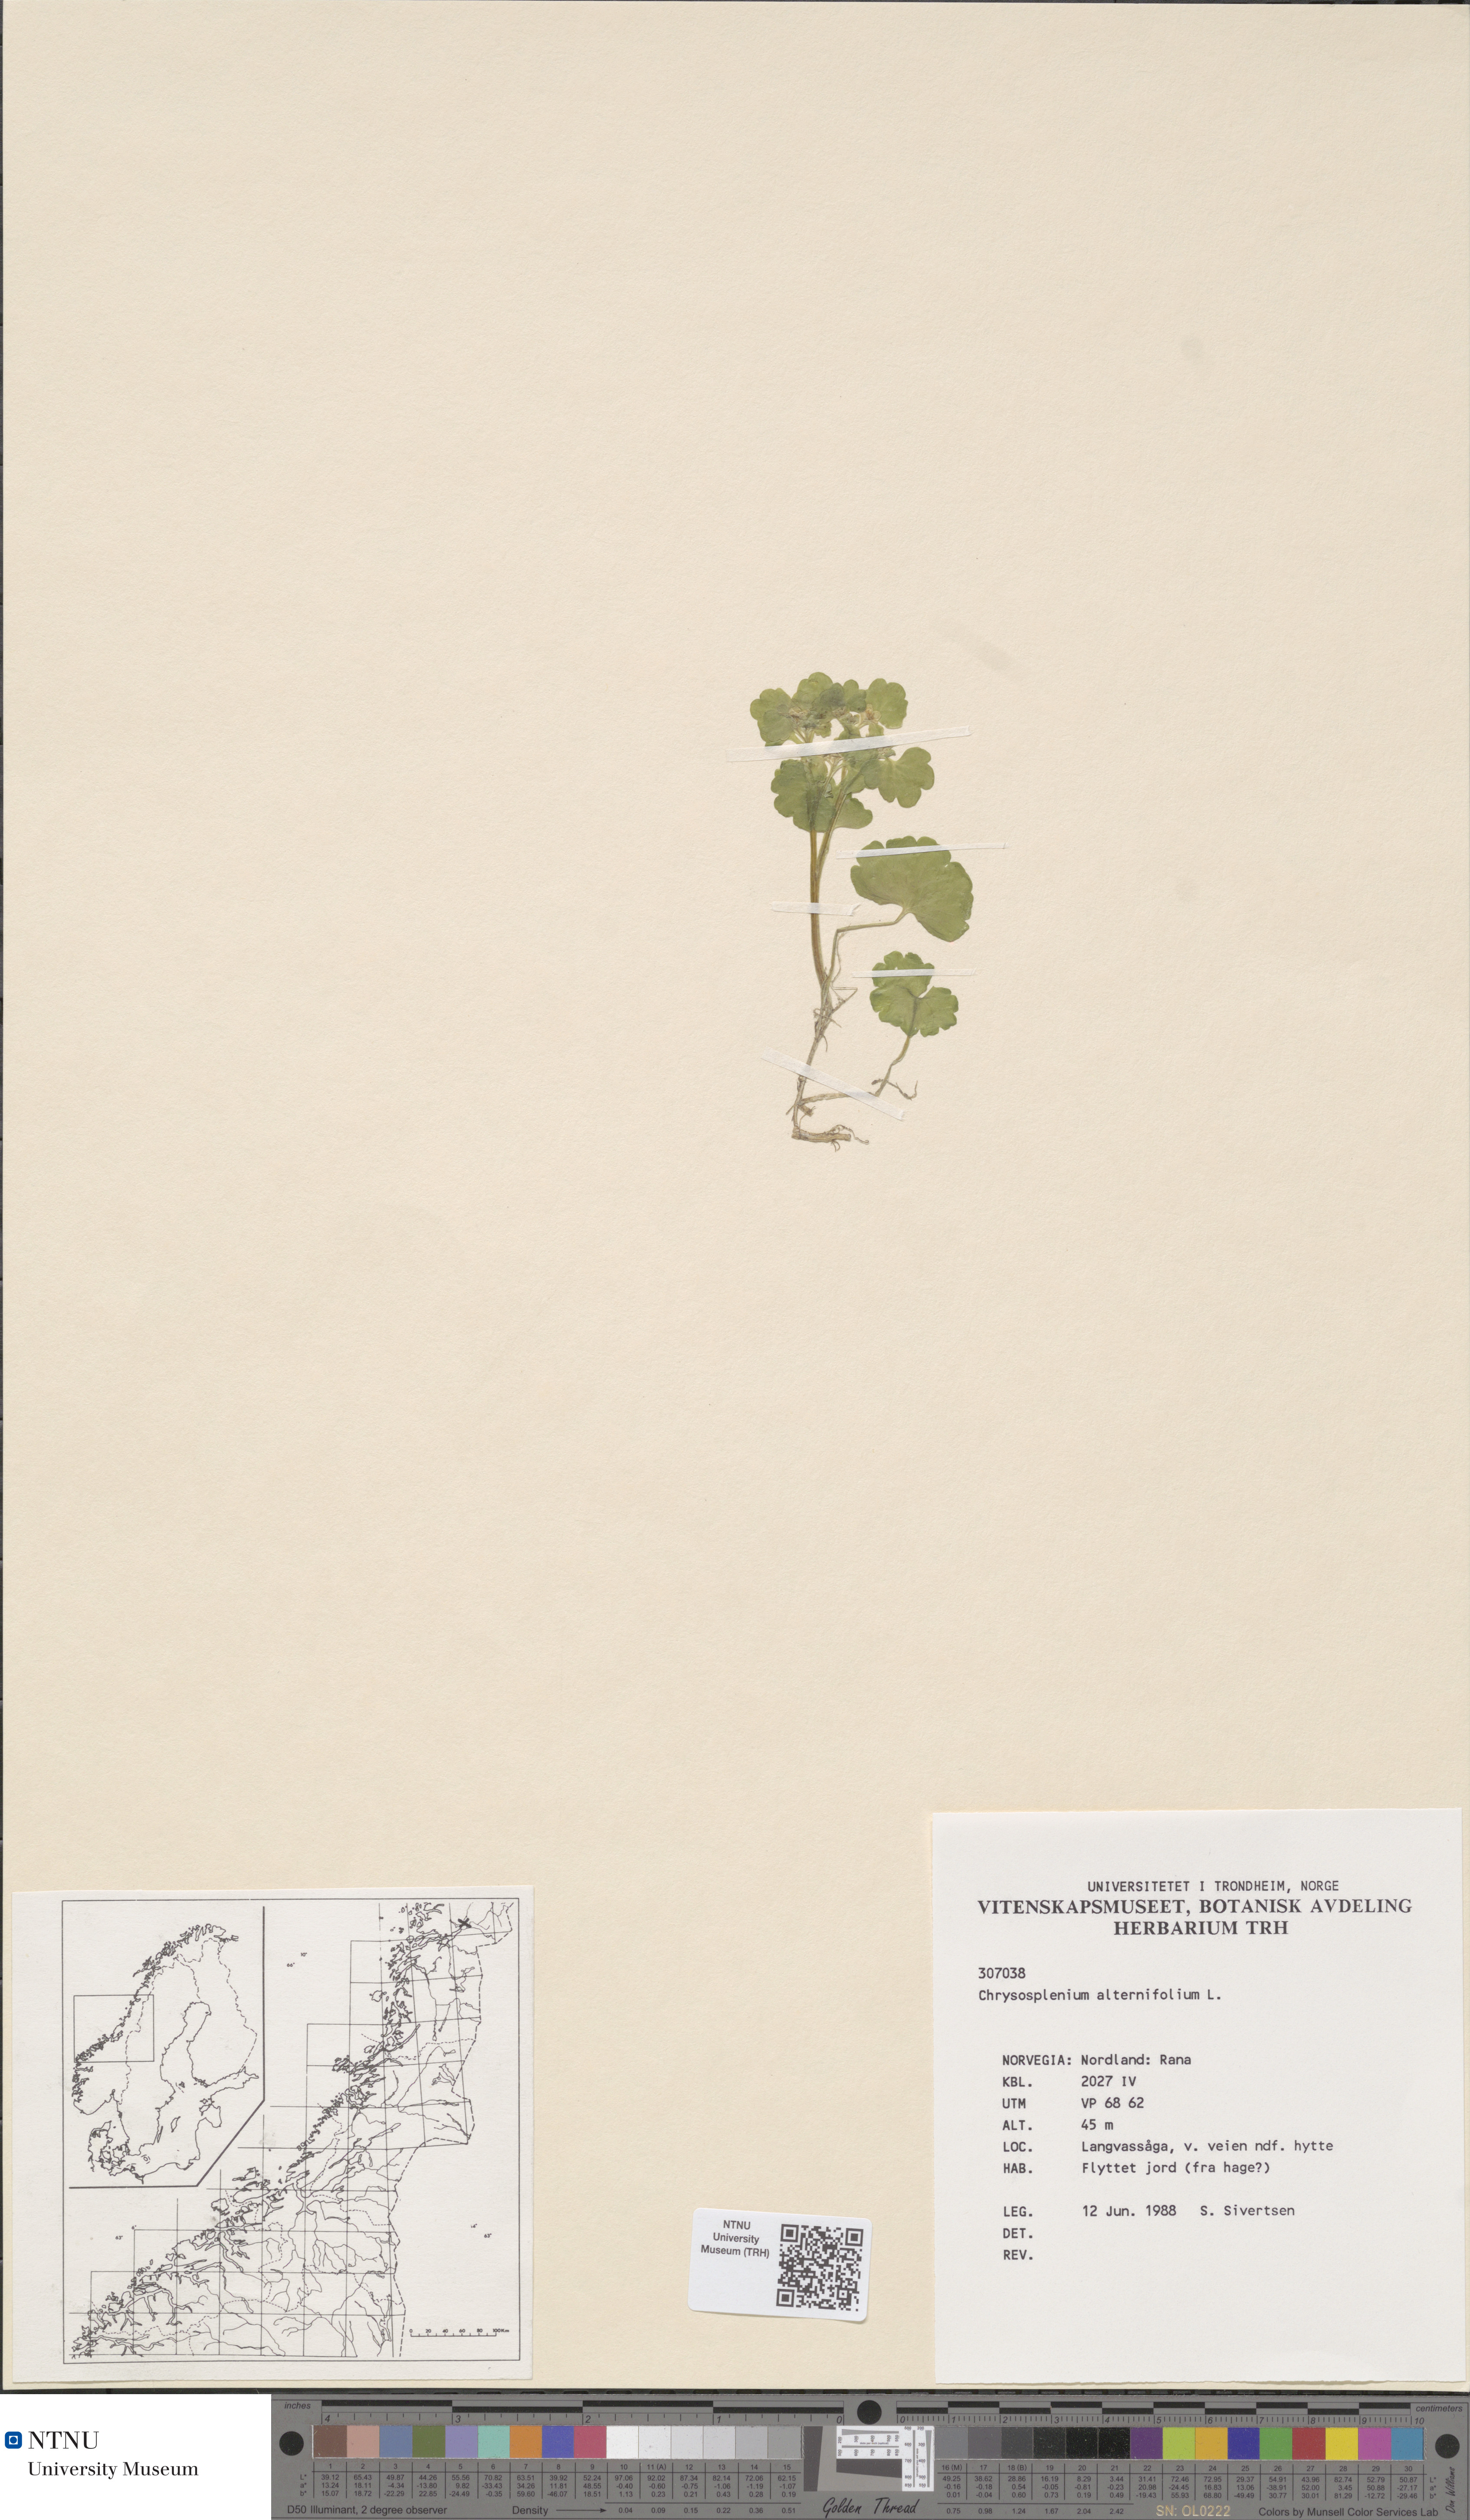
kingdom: Plantae
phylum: Tracheophyta
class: Magnoliopsida
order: Saxifragales
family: Saxifragaceae
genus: Chrysosplenium
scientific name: Chrysosplenium alternifolium
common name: Alternate-leaved golden-saxifrage
